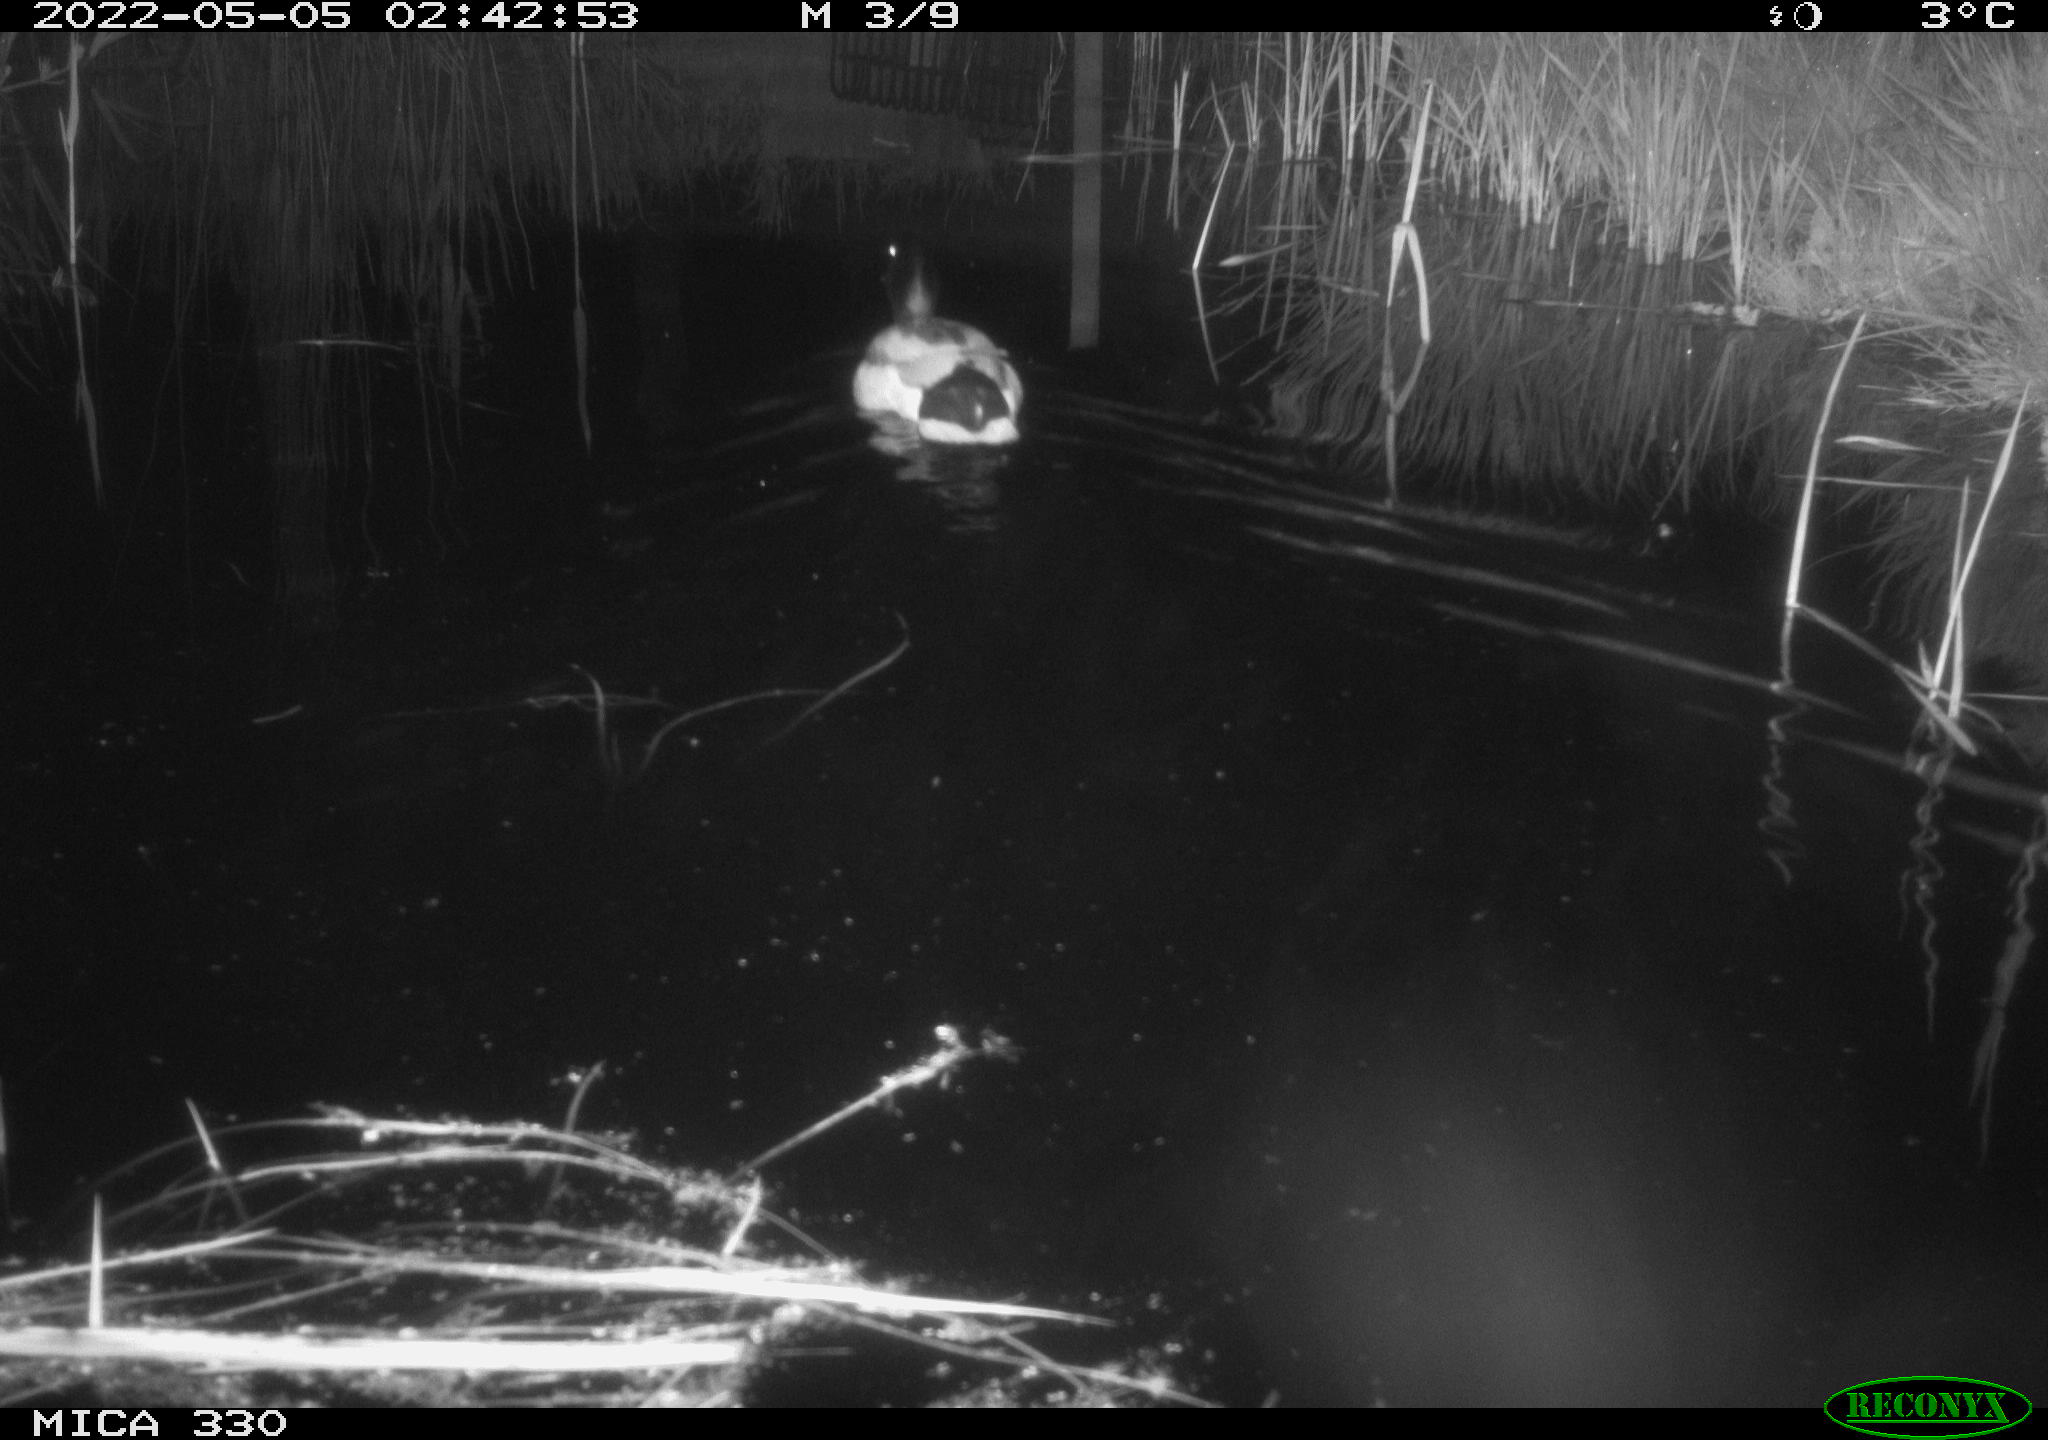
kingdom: Animalia
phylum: Chordata
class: Aves
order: Anseriformes
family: Anatidae
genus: Anas
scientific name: Anas platyrhynchos
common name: Mallard
